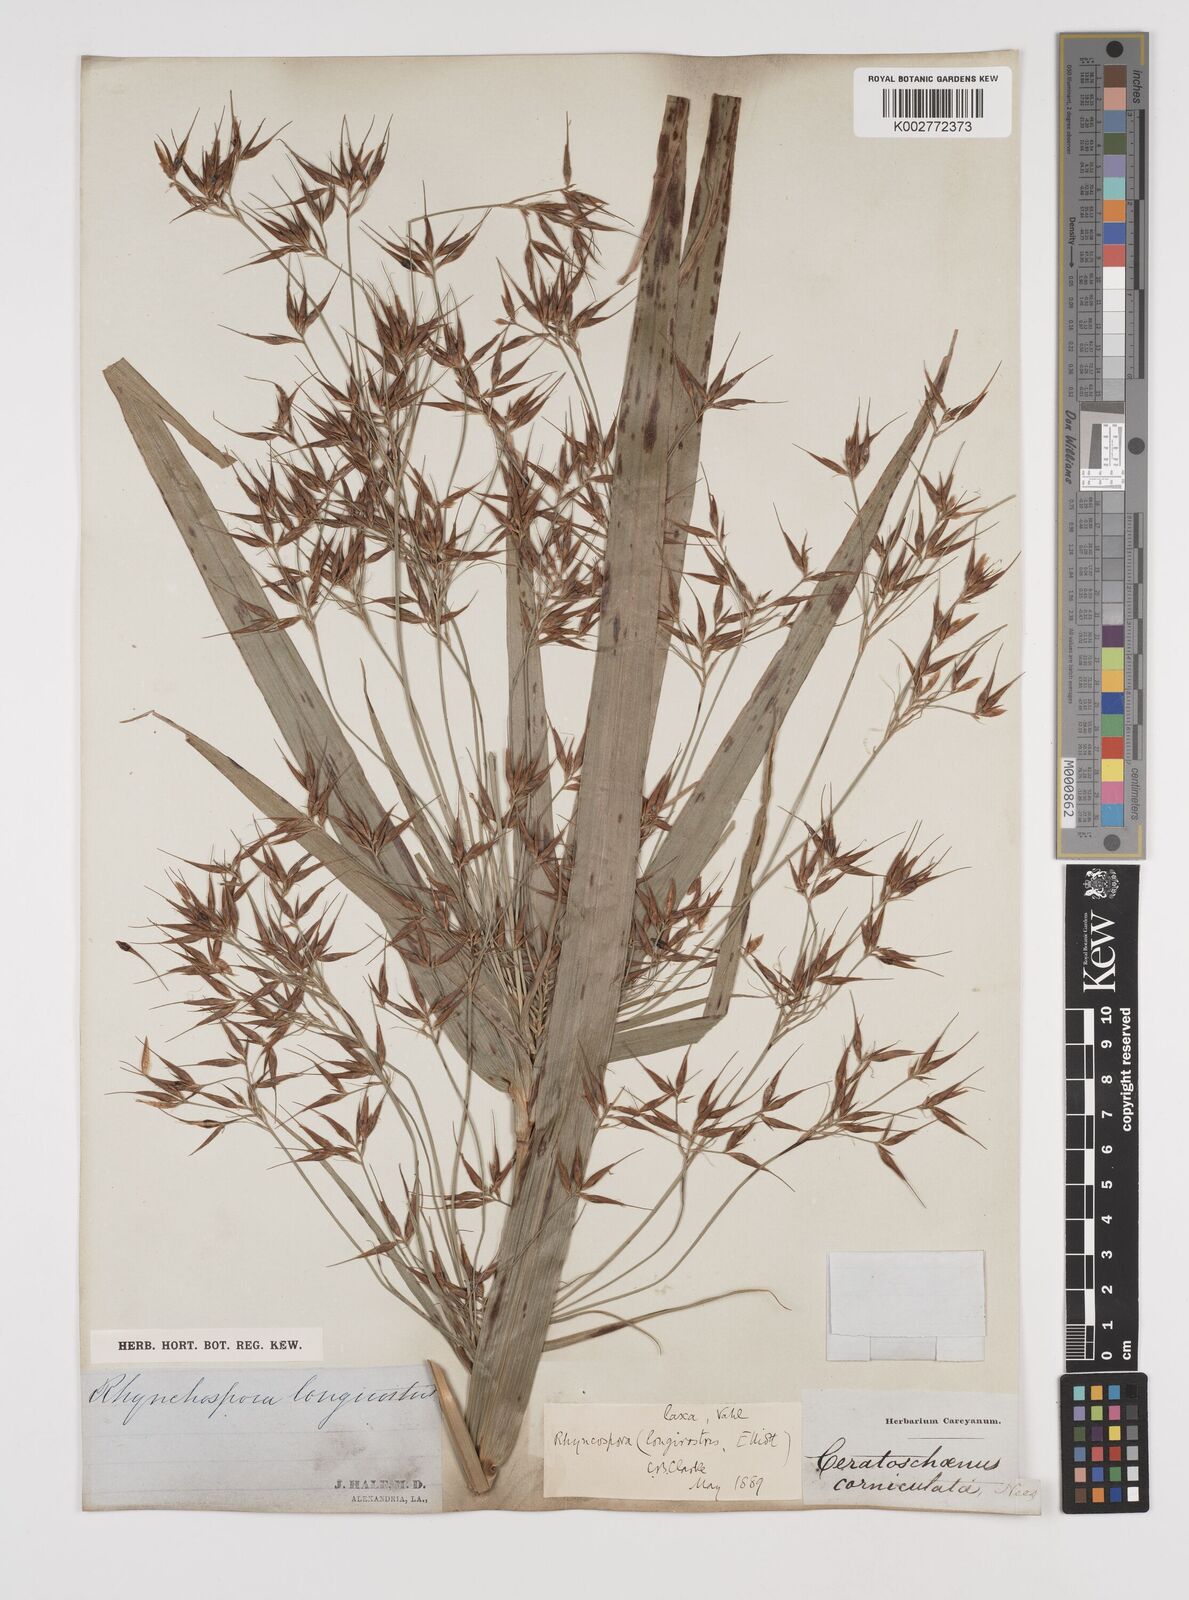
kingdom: Plantae
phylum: Tracheophyta
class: Liliopsida
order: Poales
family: Cyperaceae
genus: Rhynchospora
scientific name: Rhynchospora corniculata
